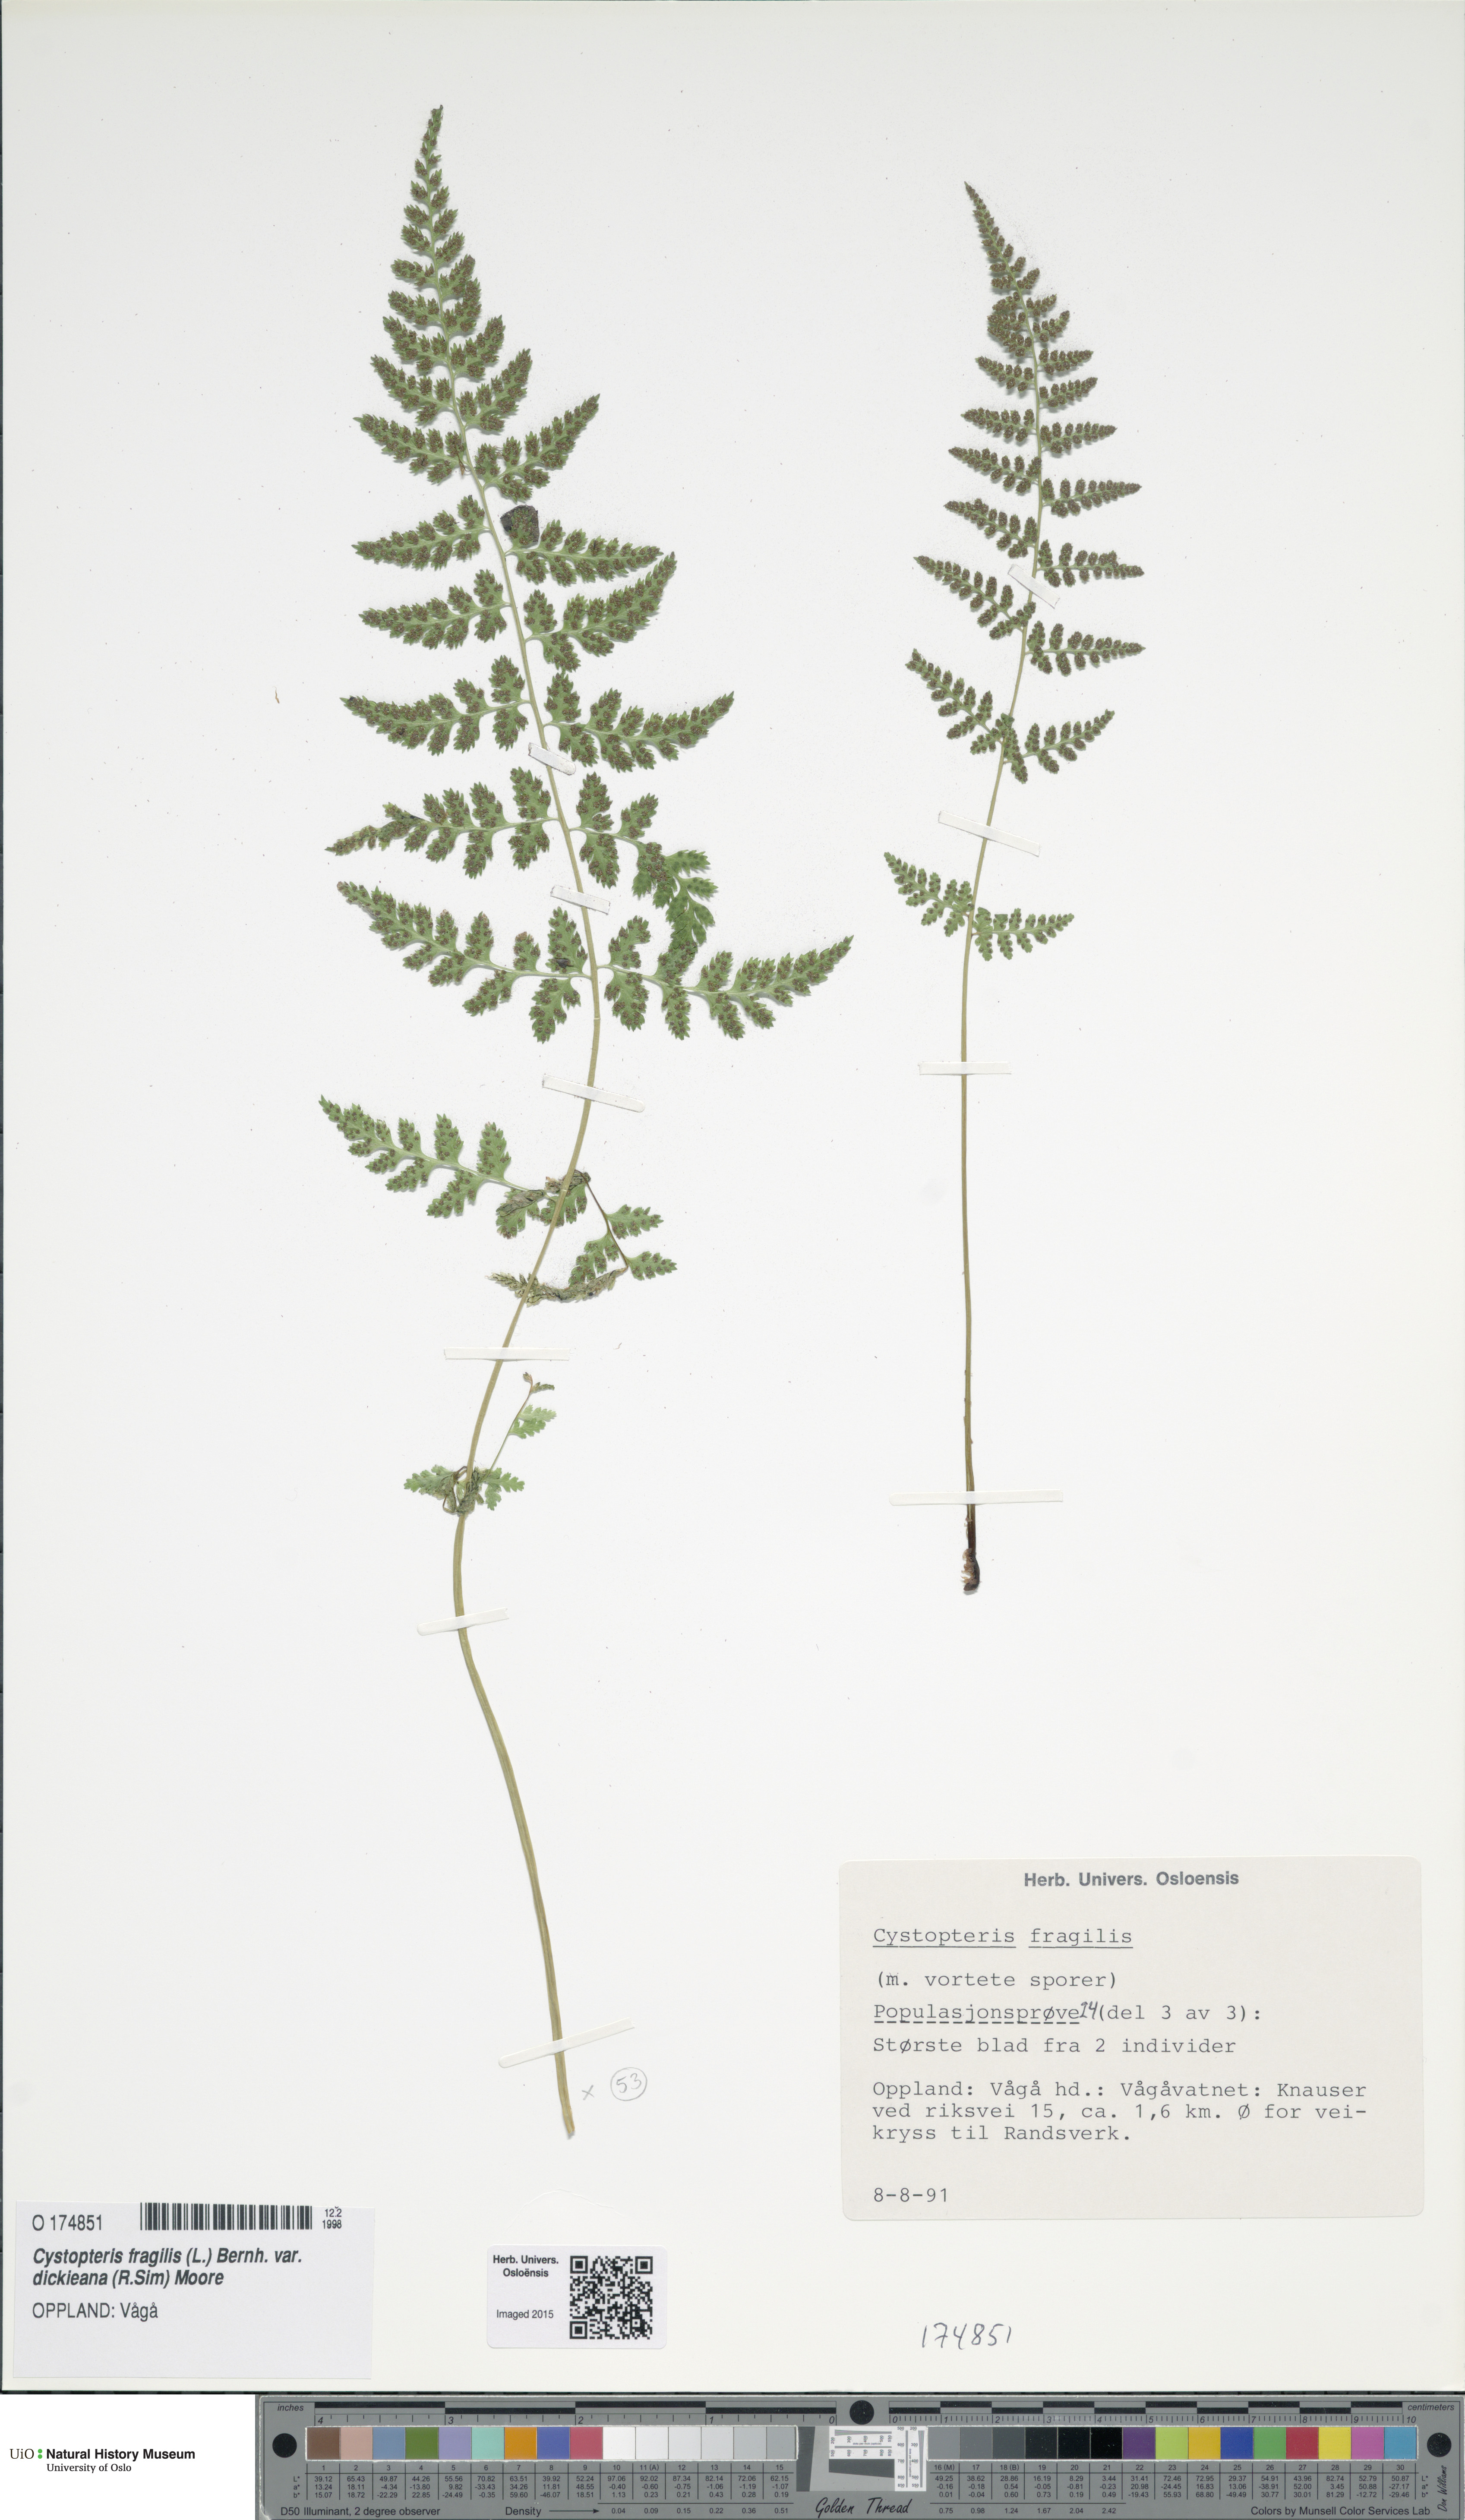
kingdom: Plantae
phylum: Tracheophyta
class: Polypodiopsida
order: Polypodiales
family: Cystopteridaceae
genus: Cystopteris
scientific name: Cystopteris dickieana
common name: Dickie's bladder-fern
